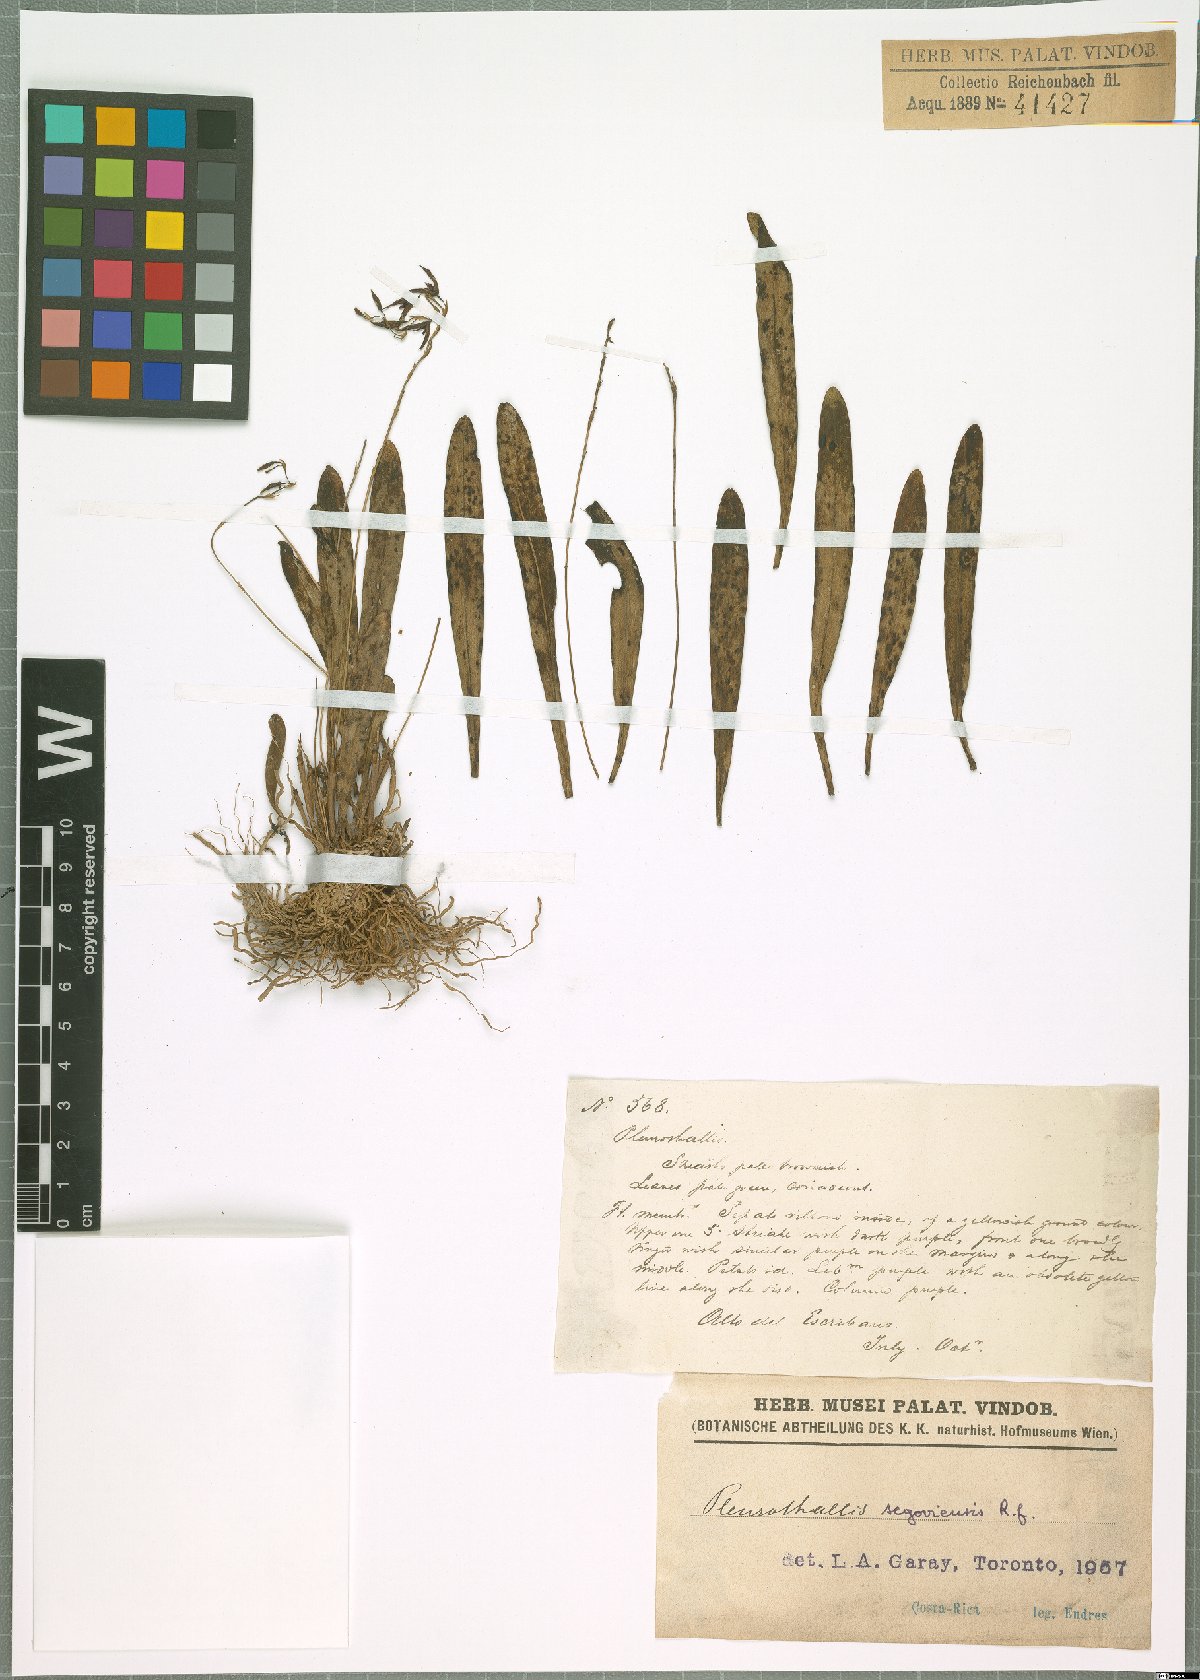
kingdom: Plantae
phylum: Tracheophyta
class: Liliopsida
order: Asparagales
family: Orchidaceae
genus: Stelis
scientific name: Stelis segoviensis
